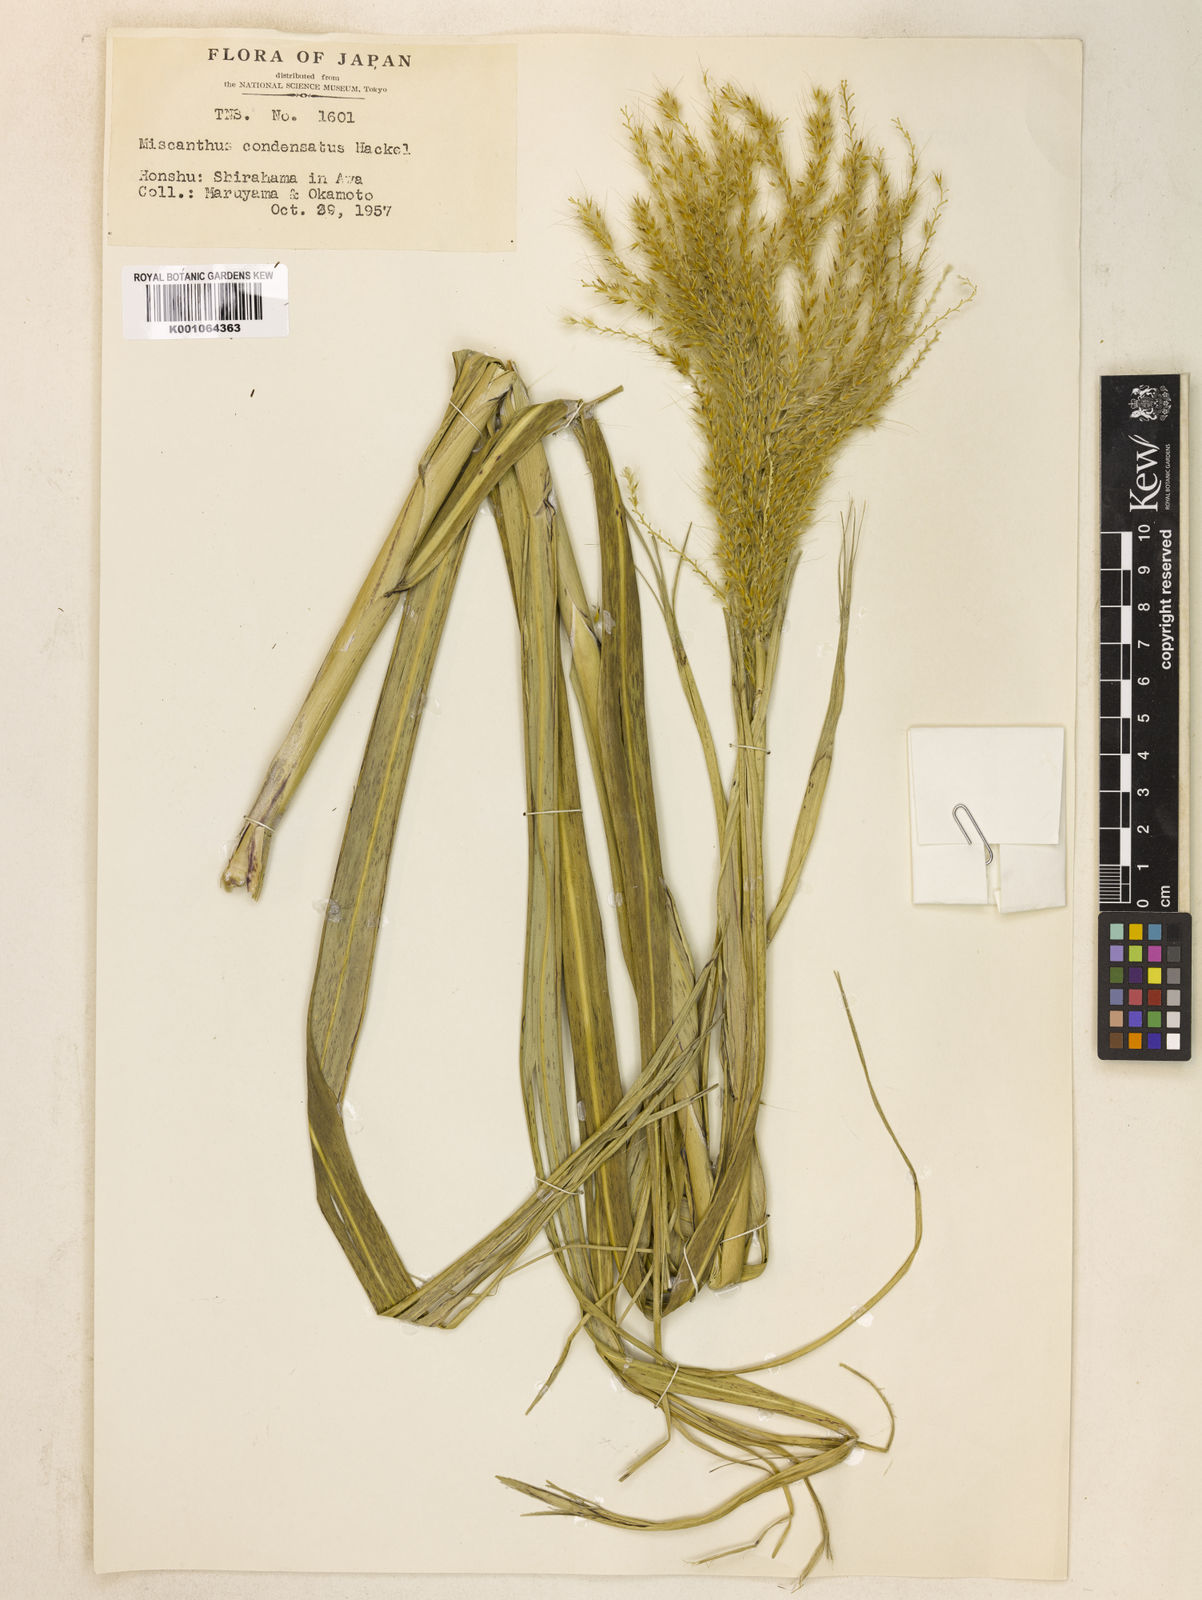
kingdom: Plantae
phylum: Tracheophyta
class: Liliopsida
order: Poales
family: Poaceae
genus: Miscanthus
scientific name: Miscanthus sinensis
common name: Chinese silvergrass
